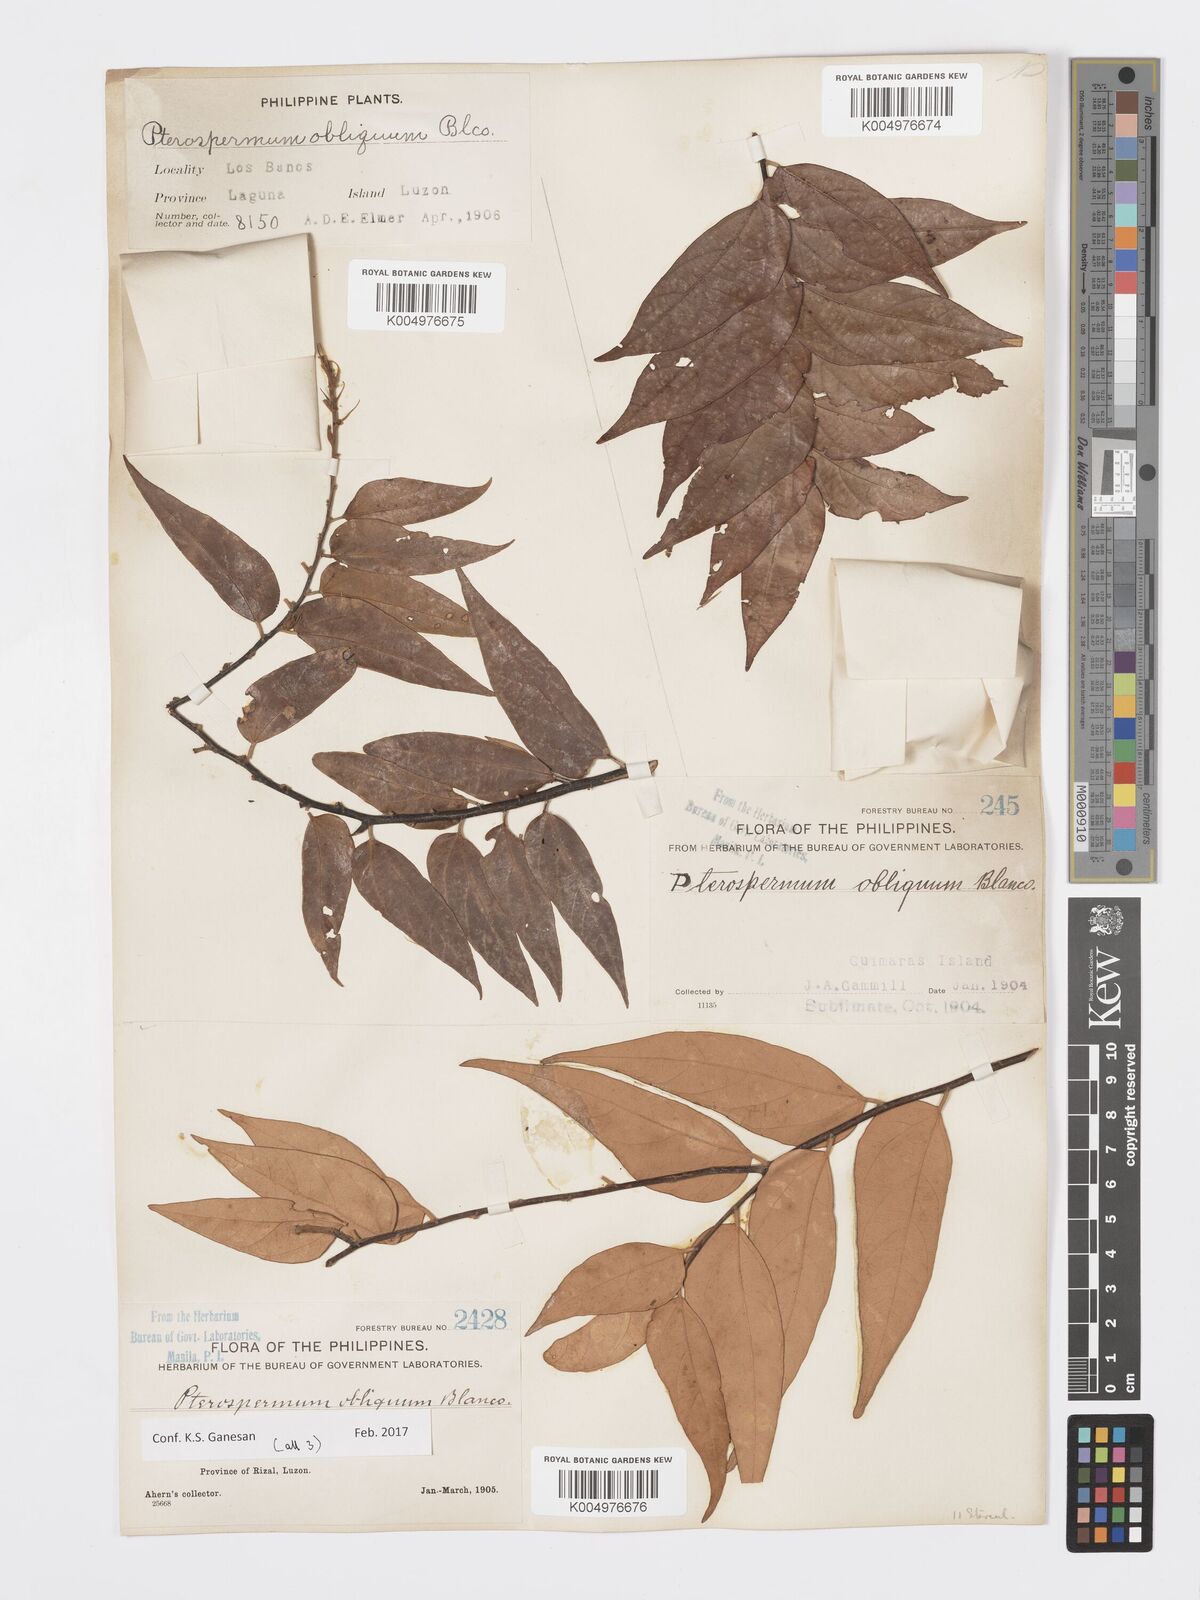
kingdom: Plantae
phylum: Tracheophyta
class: Magnoliopsida
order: Malvales
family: Malvaceae
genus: Pterospermum
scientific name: Pterospermum obliquum
